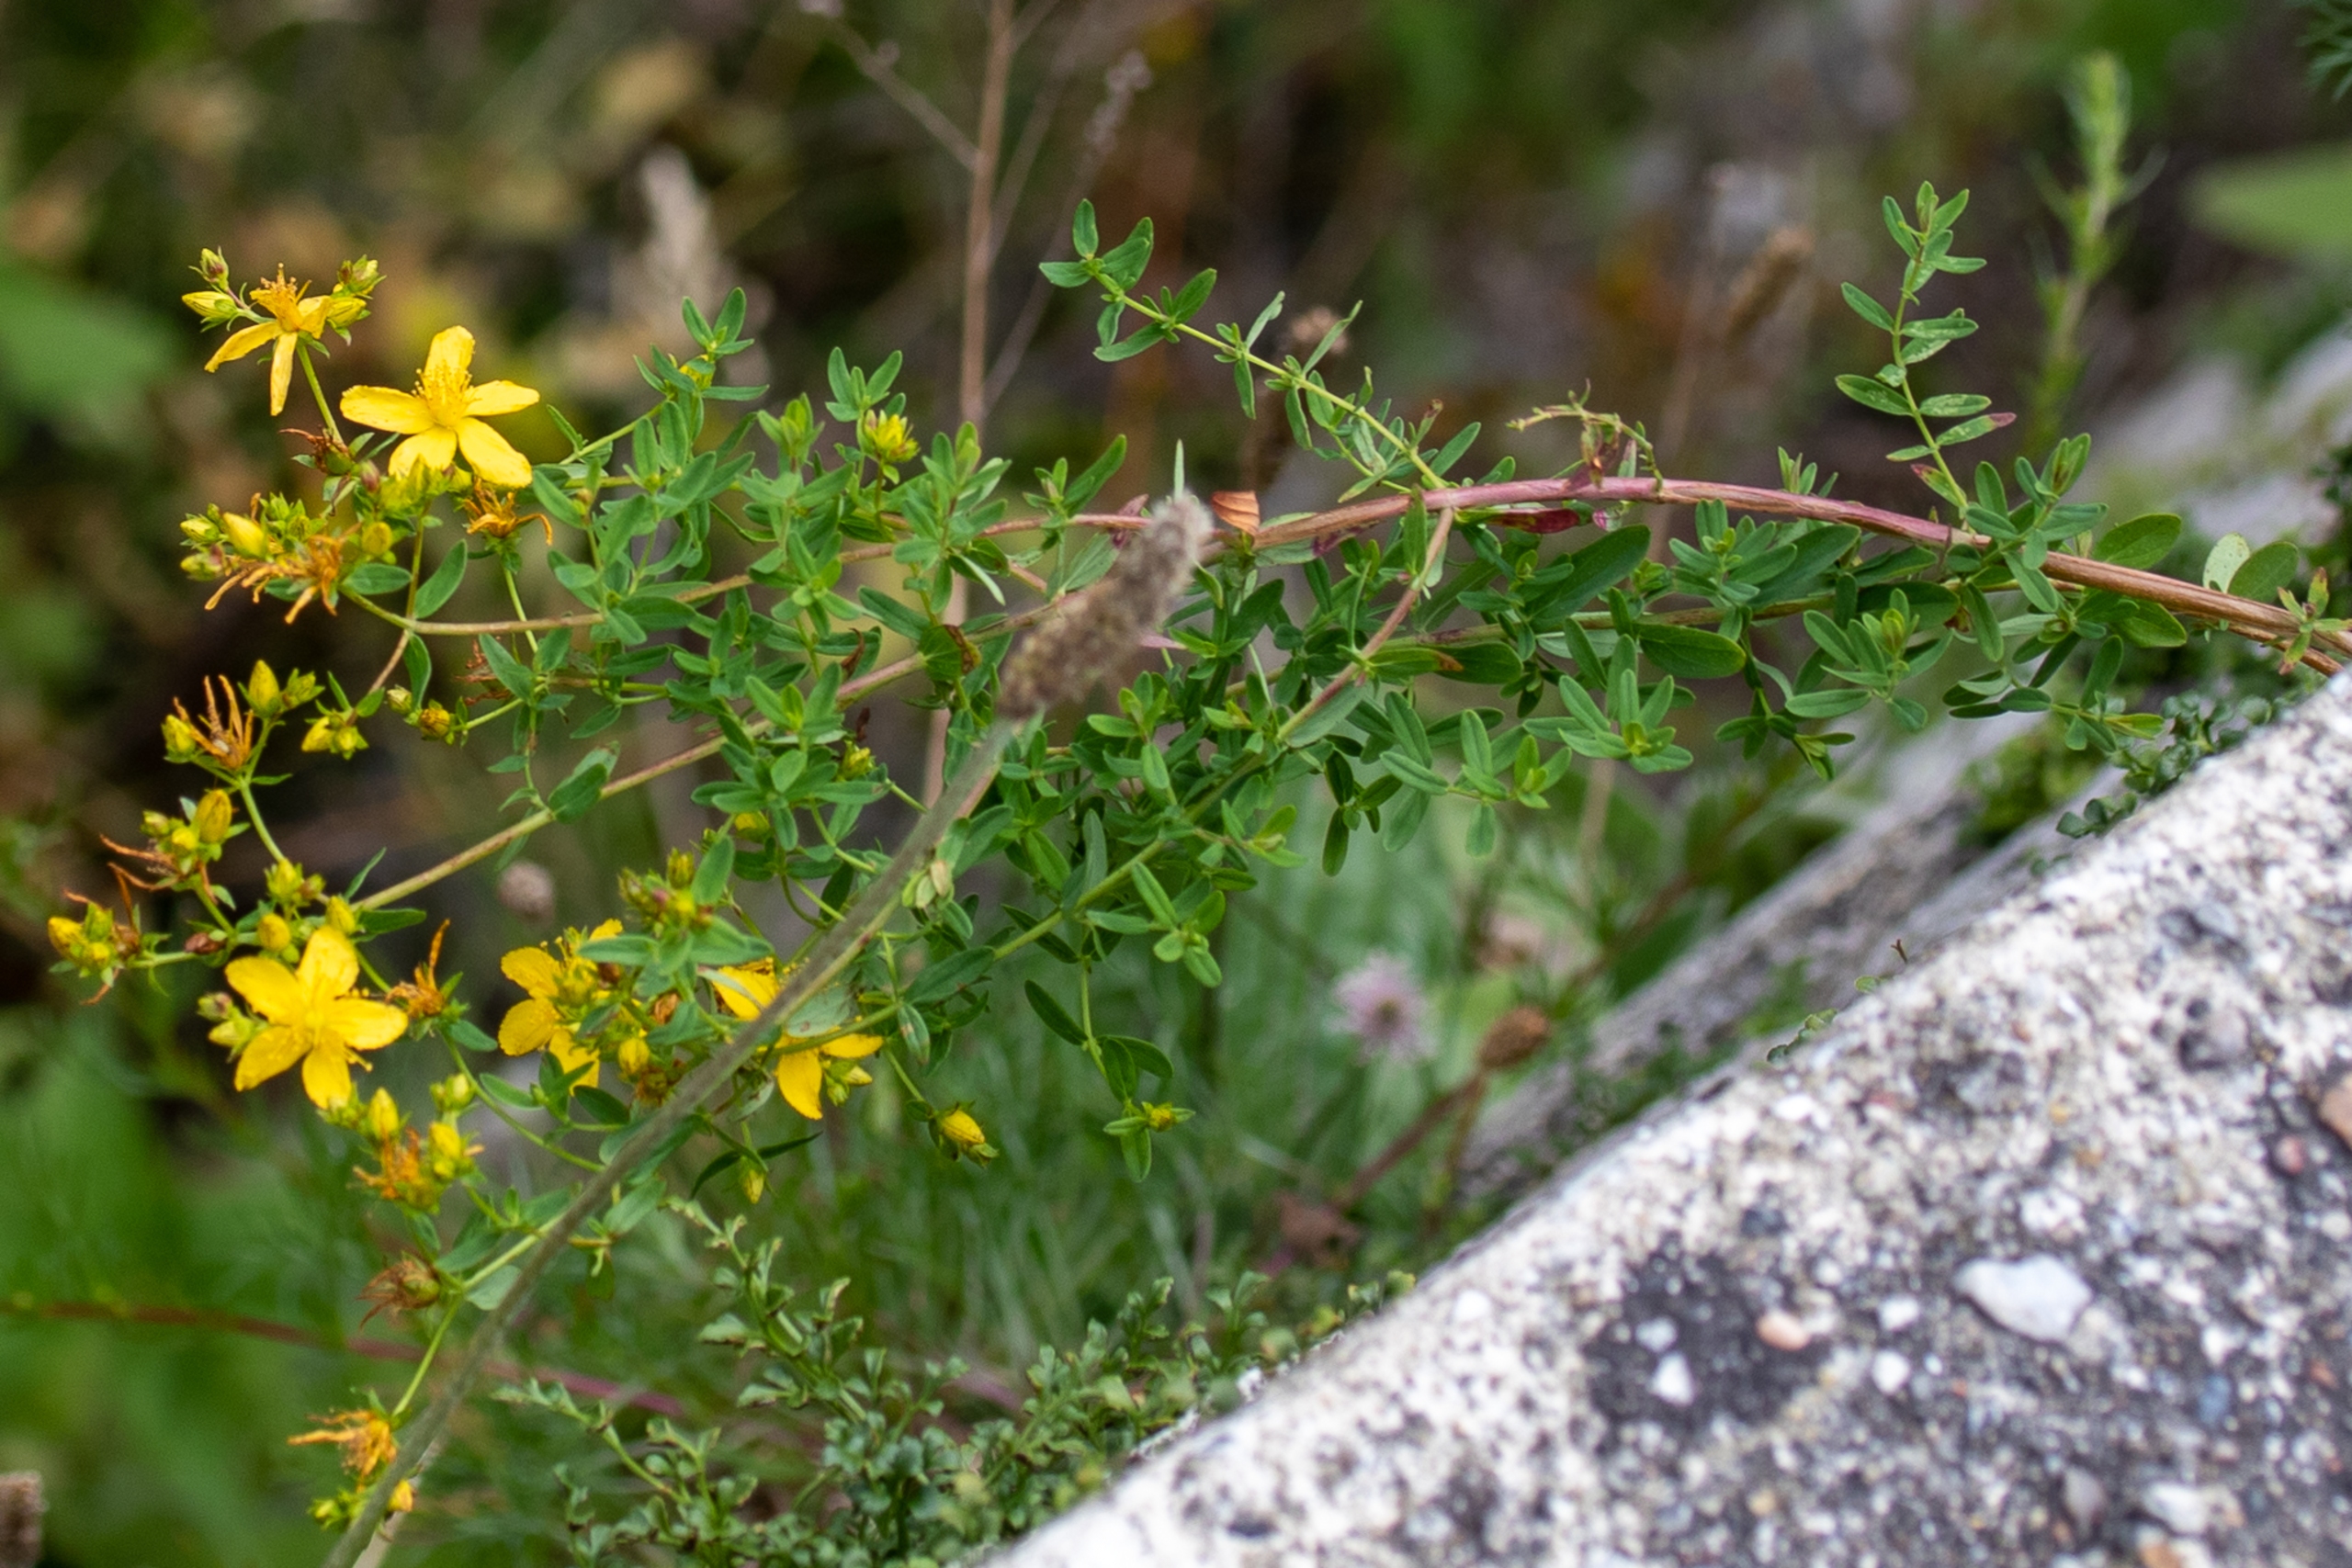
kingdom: Plantae
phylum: Tracheophyta
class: Magnoliopsida
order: Malpighiales
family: Hypericaceae
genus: Hypericum
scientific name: Hypericum perforatum
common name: Prikbladet perikon
